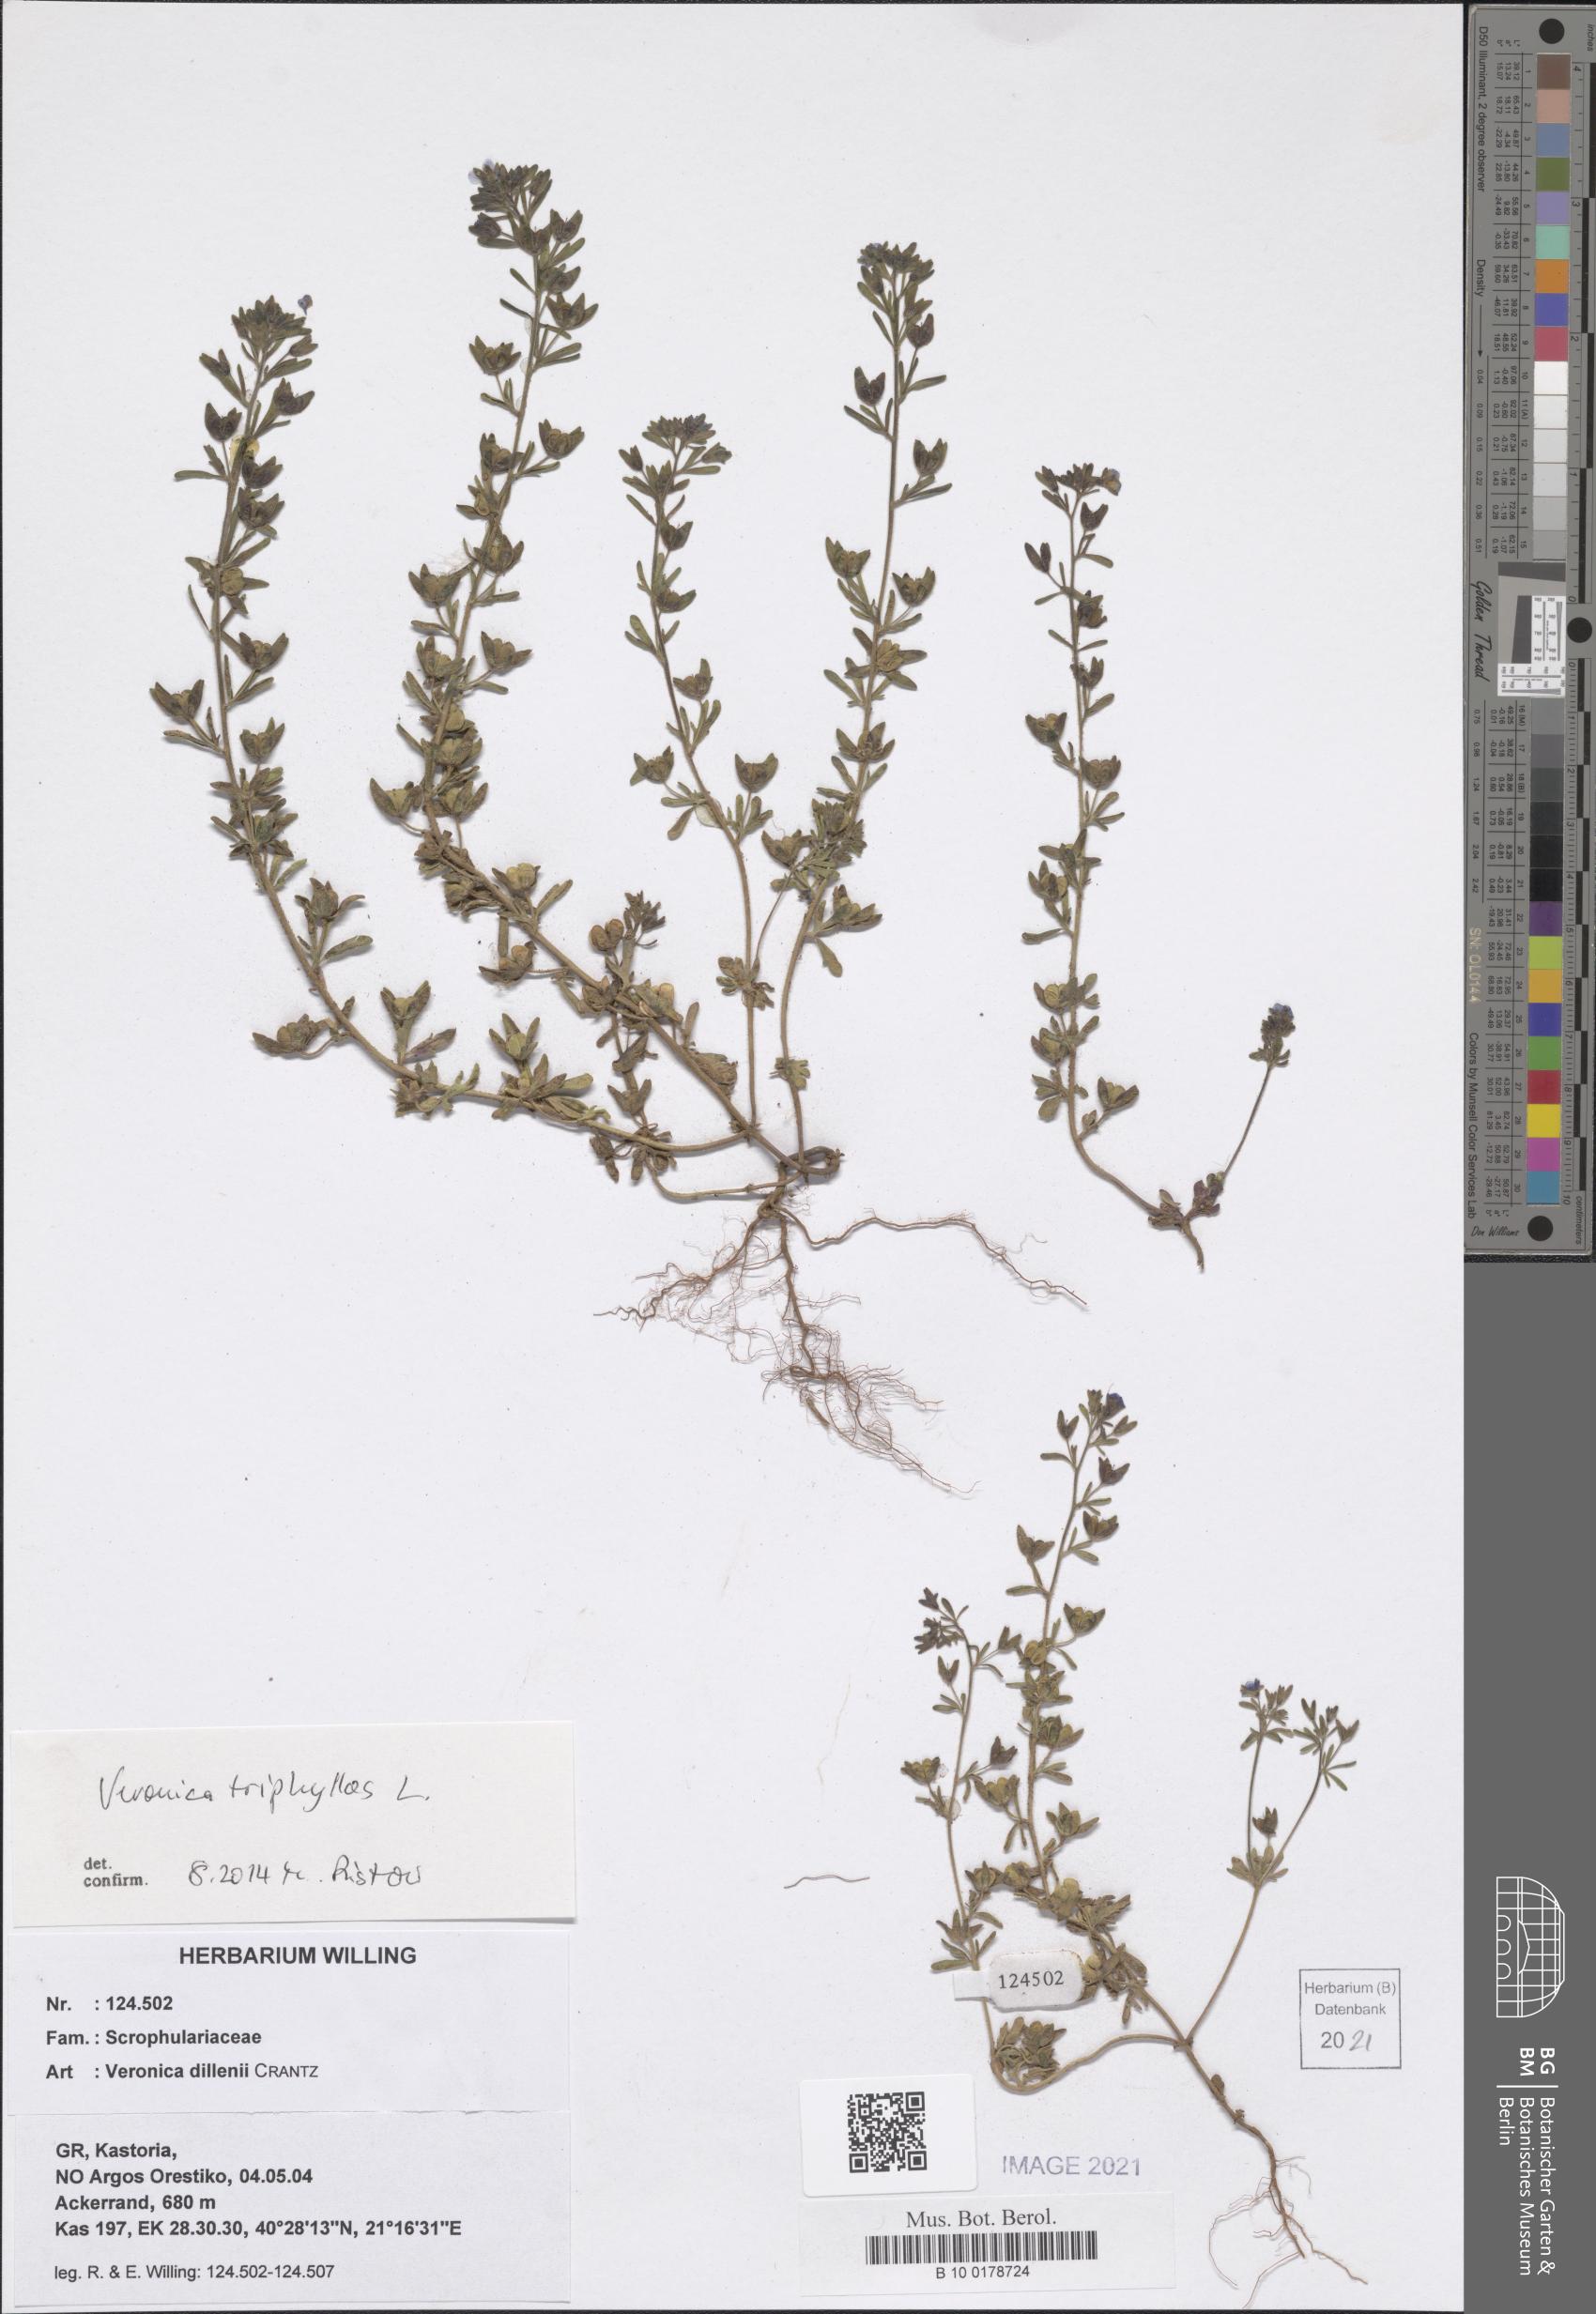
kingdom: Plantae
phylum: Tracheophyta
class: Magnoliopsida
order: Lamiales
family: Plantaginaceae
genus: Veronica
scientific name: Veronica triphyllos
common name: Fingered speedwell
